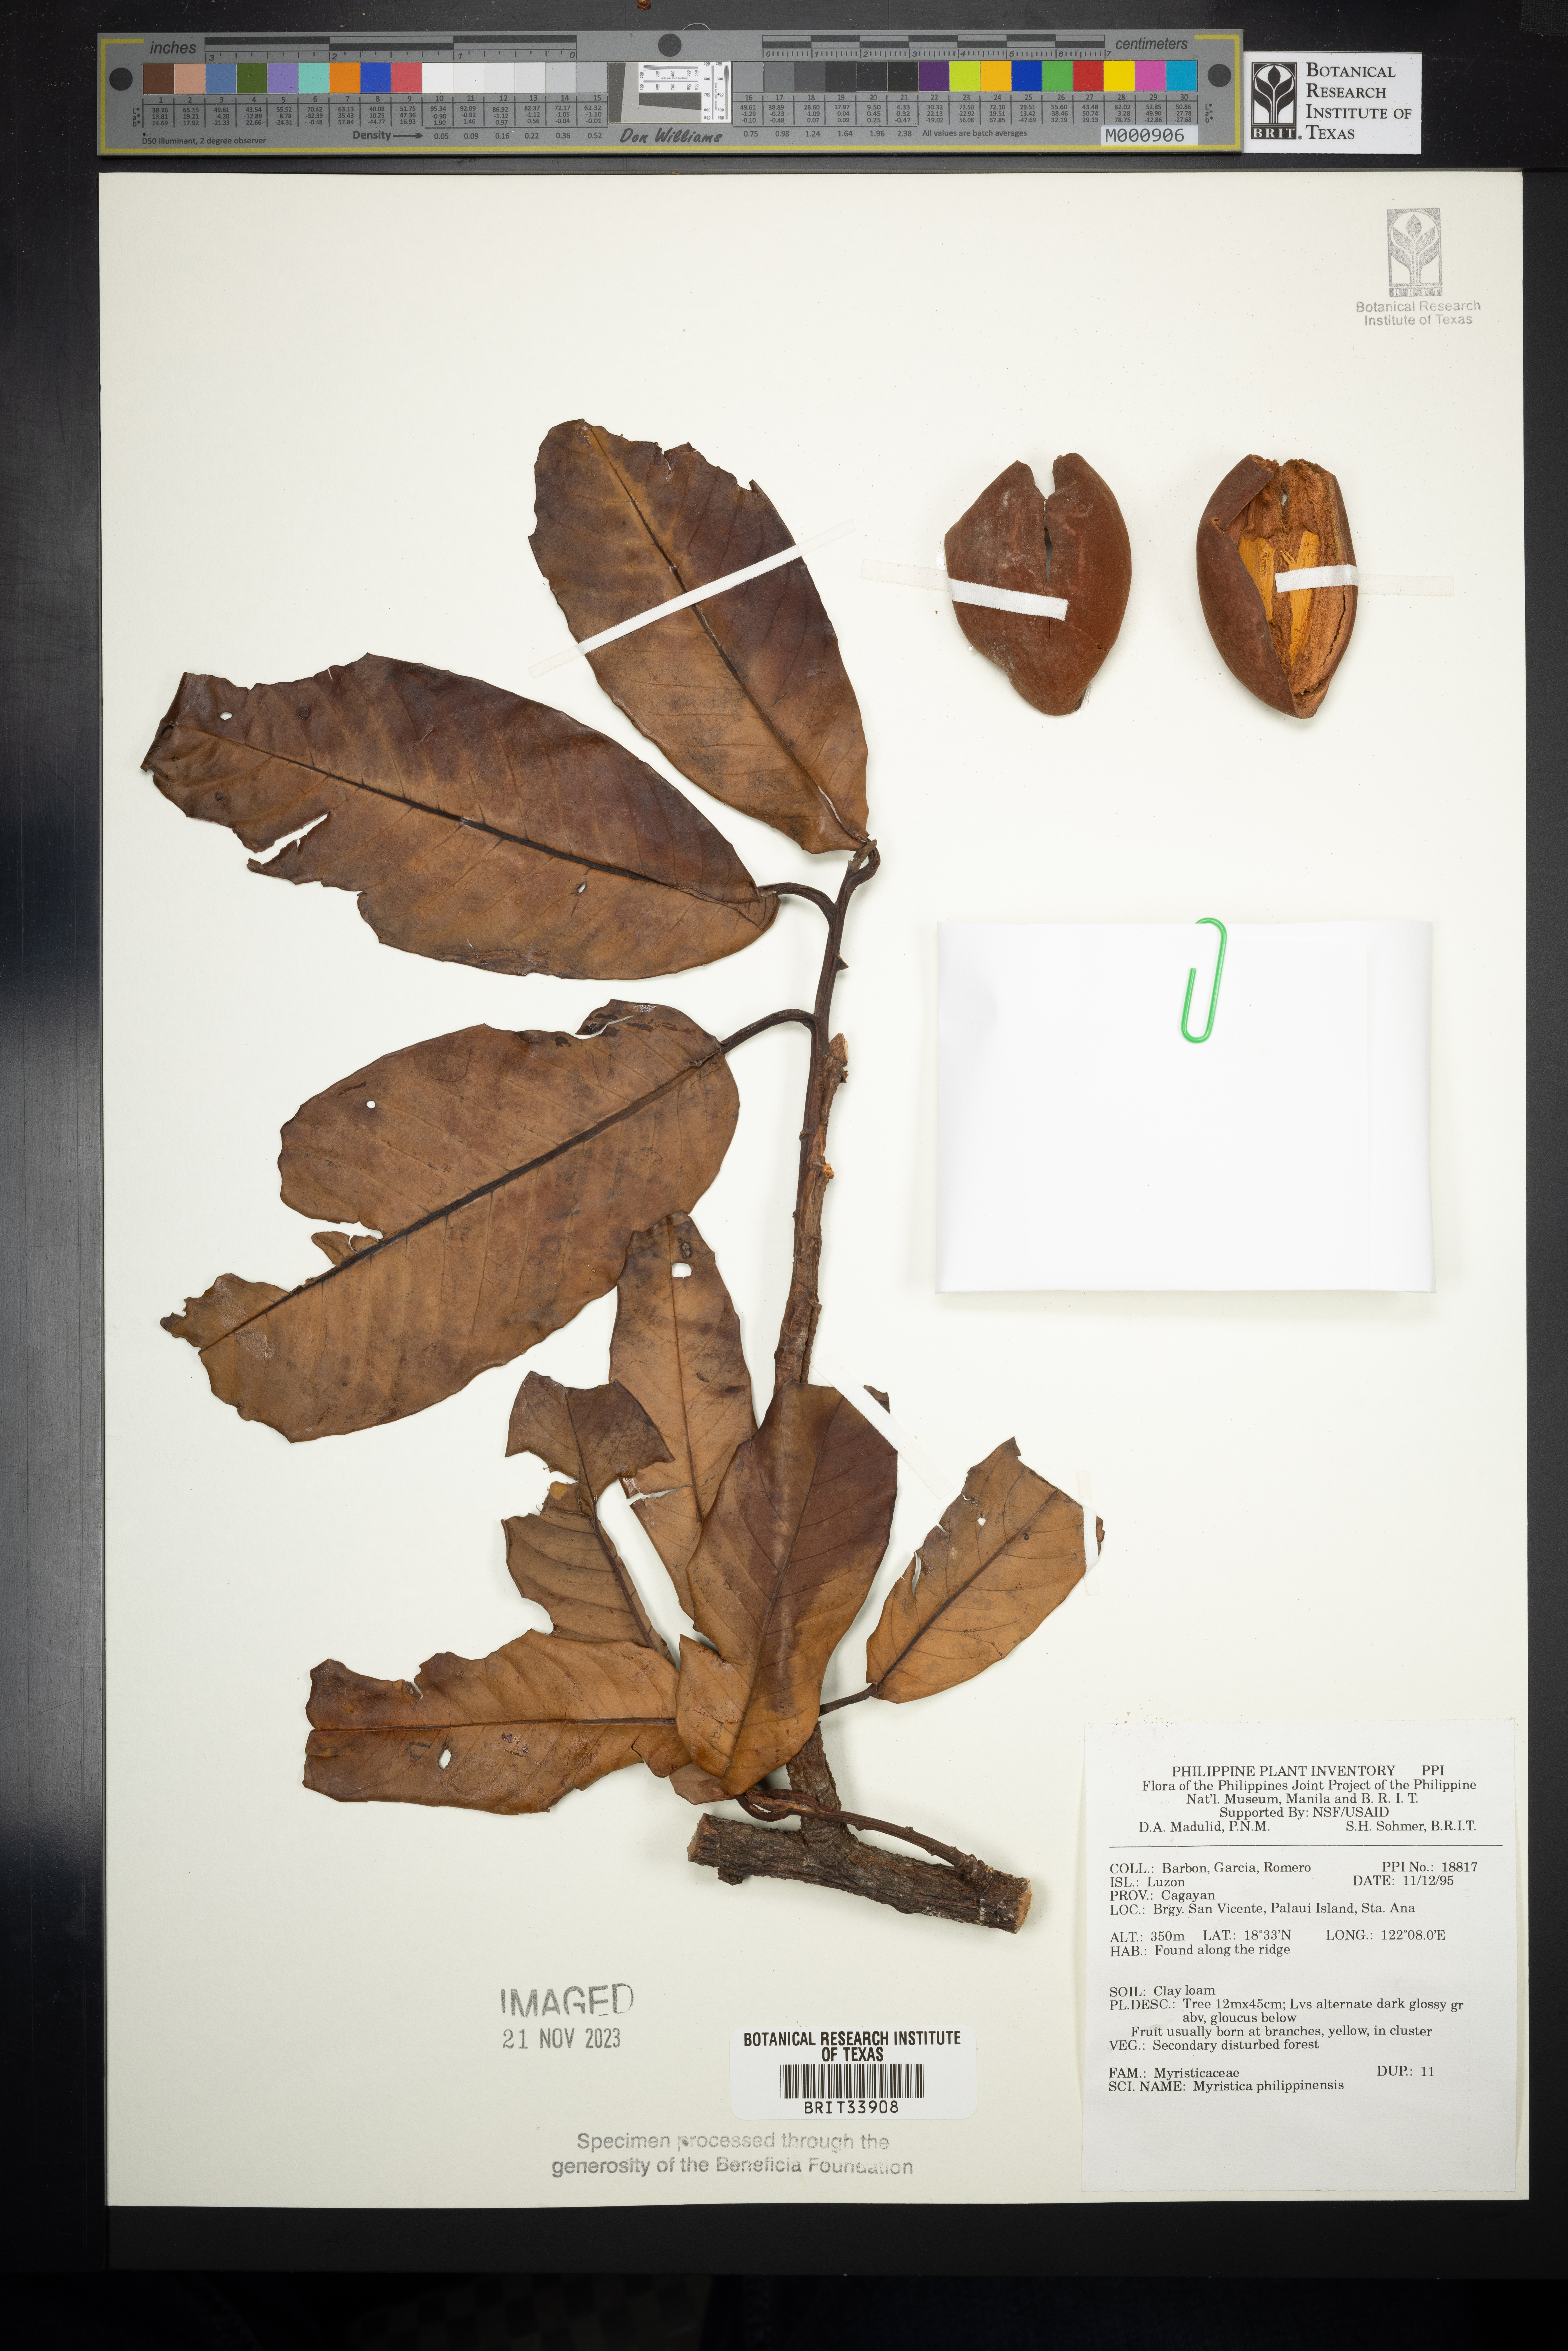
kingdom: Plantae
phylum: Tracheophyta
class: Magnoliopsida
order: Magnoliales
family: Myristicaceae
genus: Myristica
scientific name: Myristica fragrans
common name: Nutmeg
